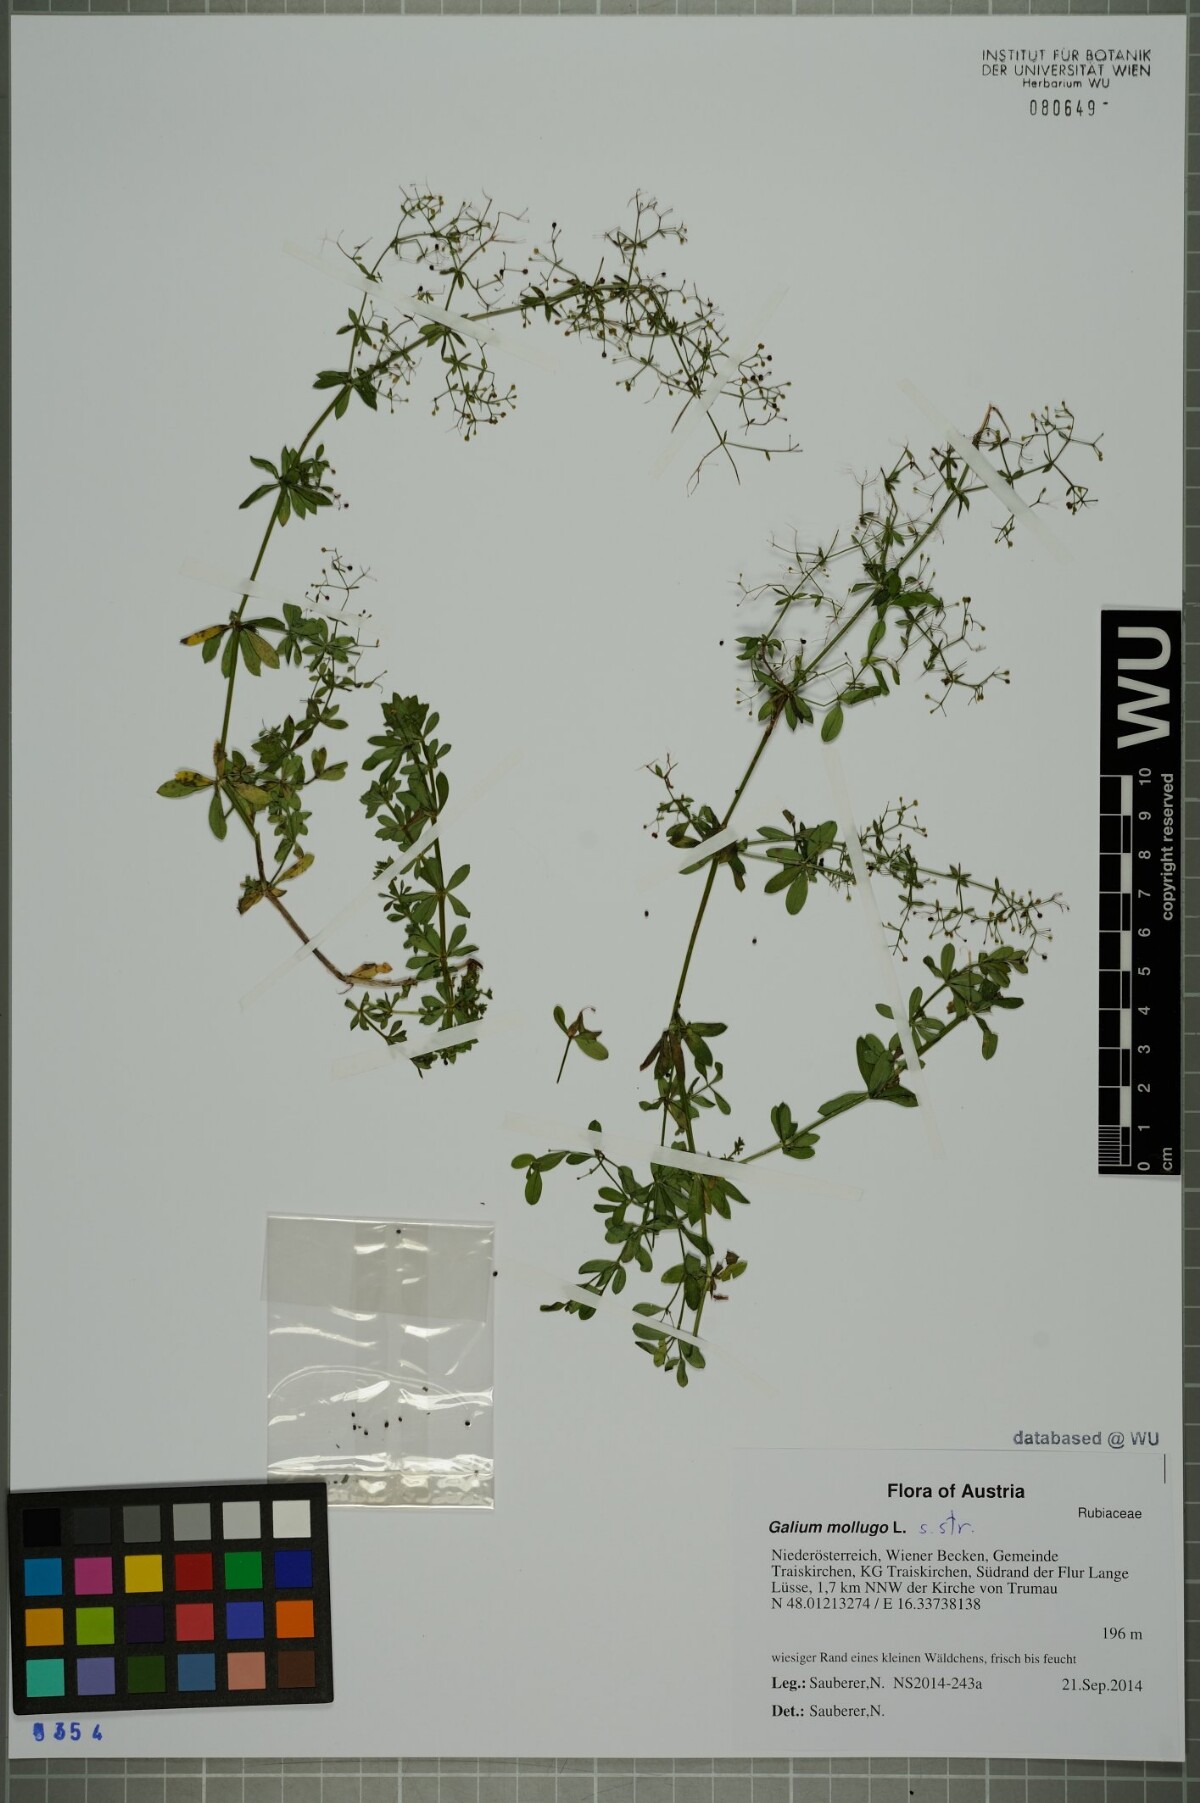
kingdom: Plantae
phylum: Tracheophyta
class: Magnoliopsida
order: Gentianales
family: Rubiaceae
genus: Galium
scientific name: Galium mollugo
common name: Hedge bedstraw
